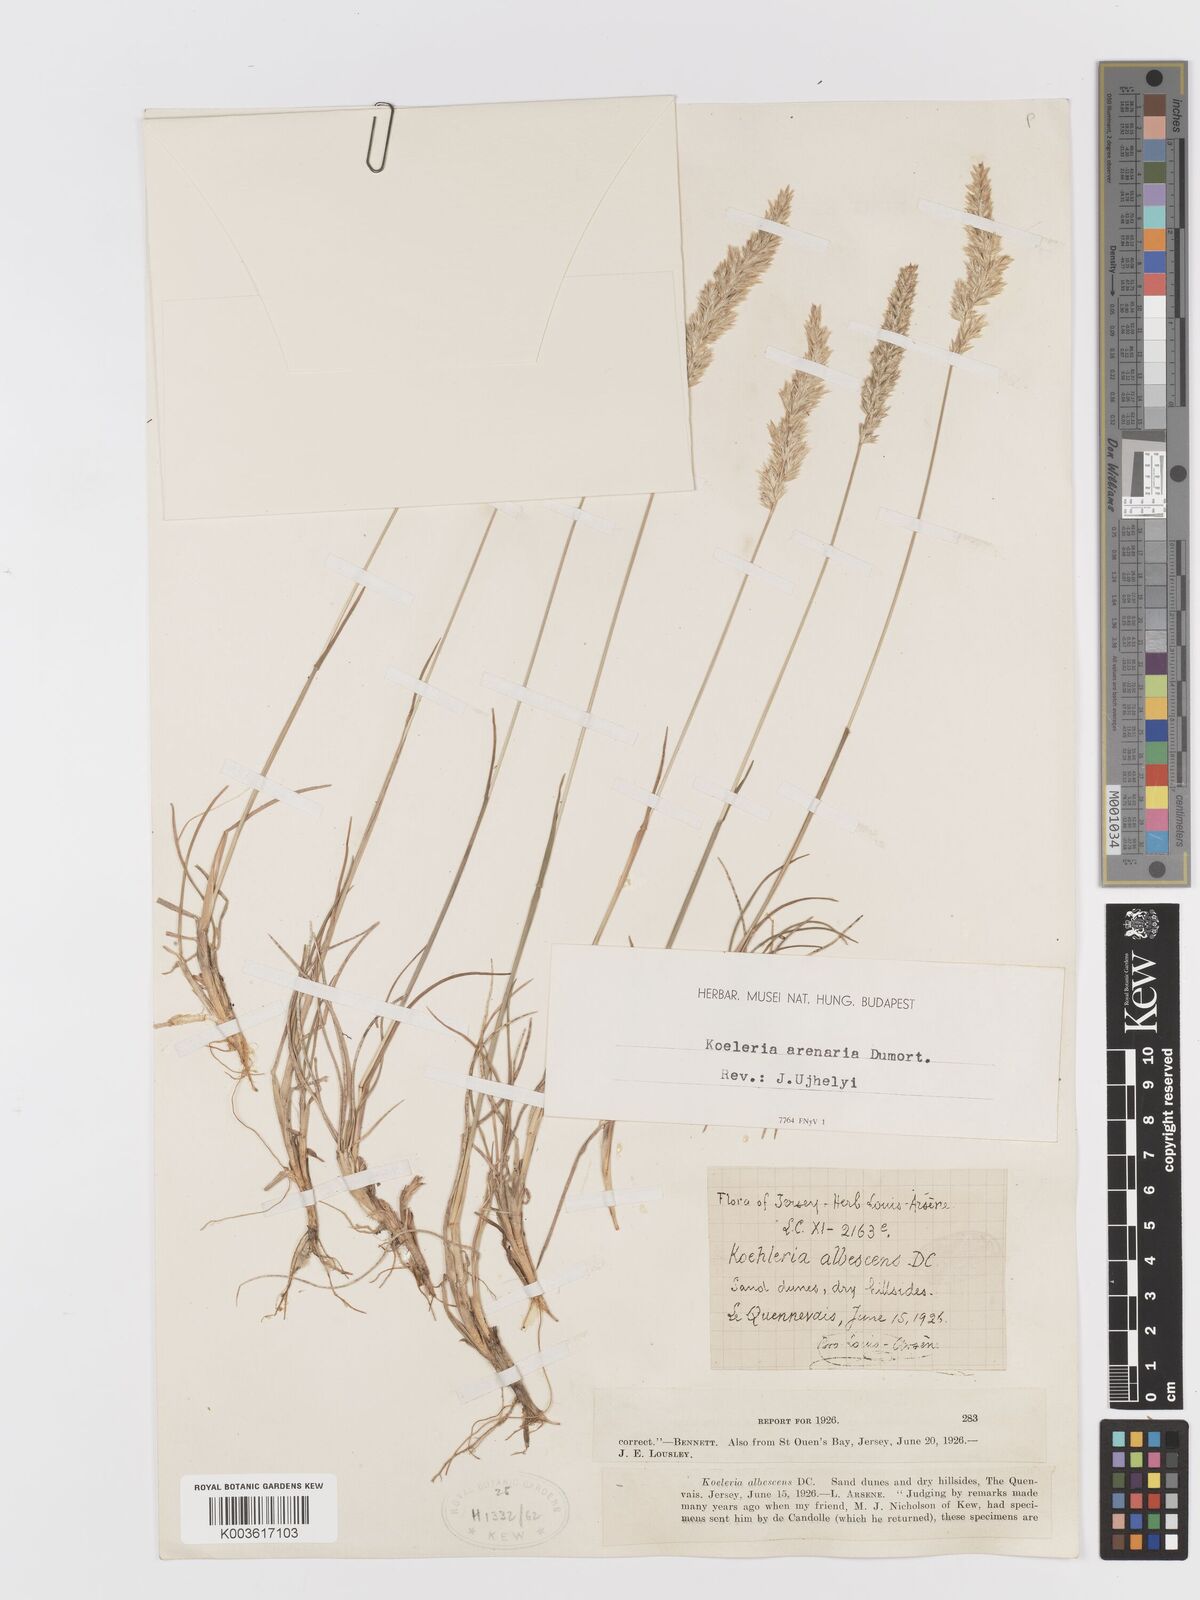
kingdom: Plantae
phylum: Tracheophyta
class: Liliopsida
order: Poales
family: Poaceae
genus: Koeleria
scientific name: Koeleria macrantha
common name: Crested hair-grass
